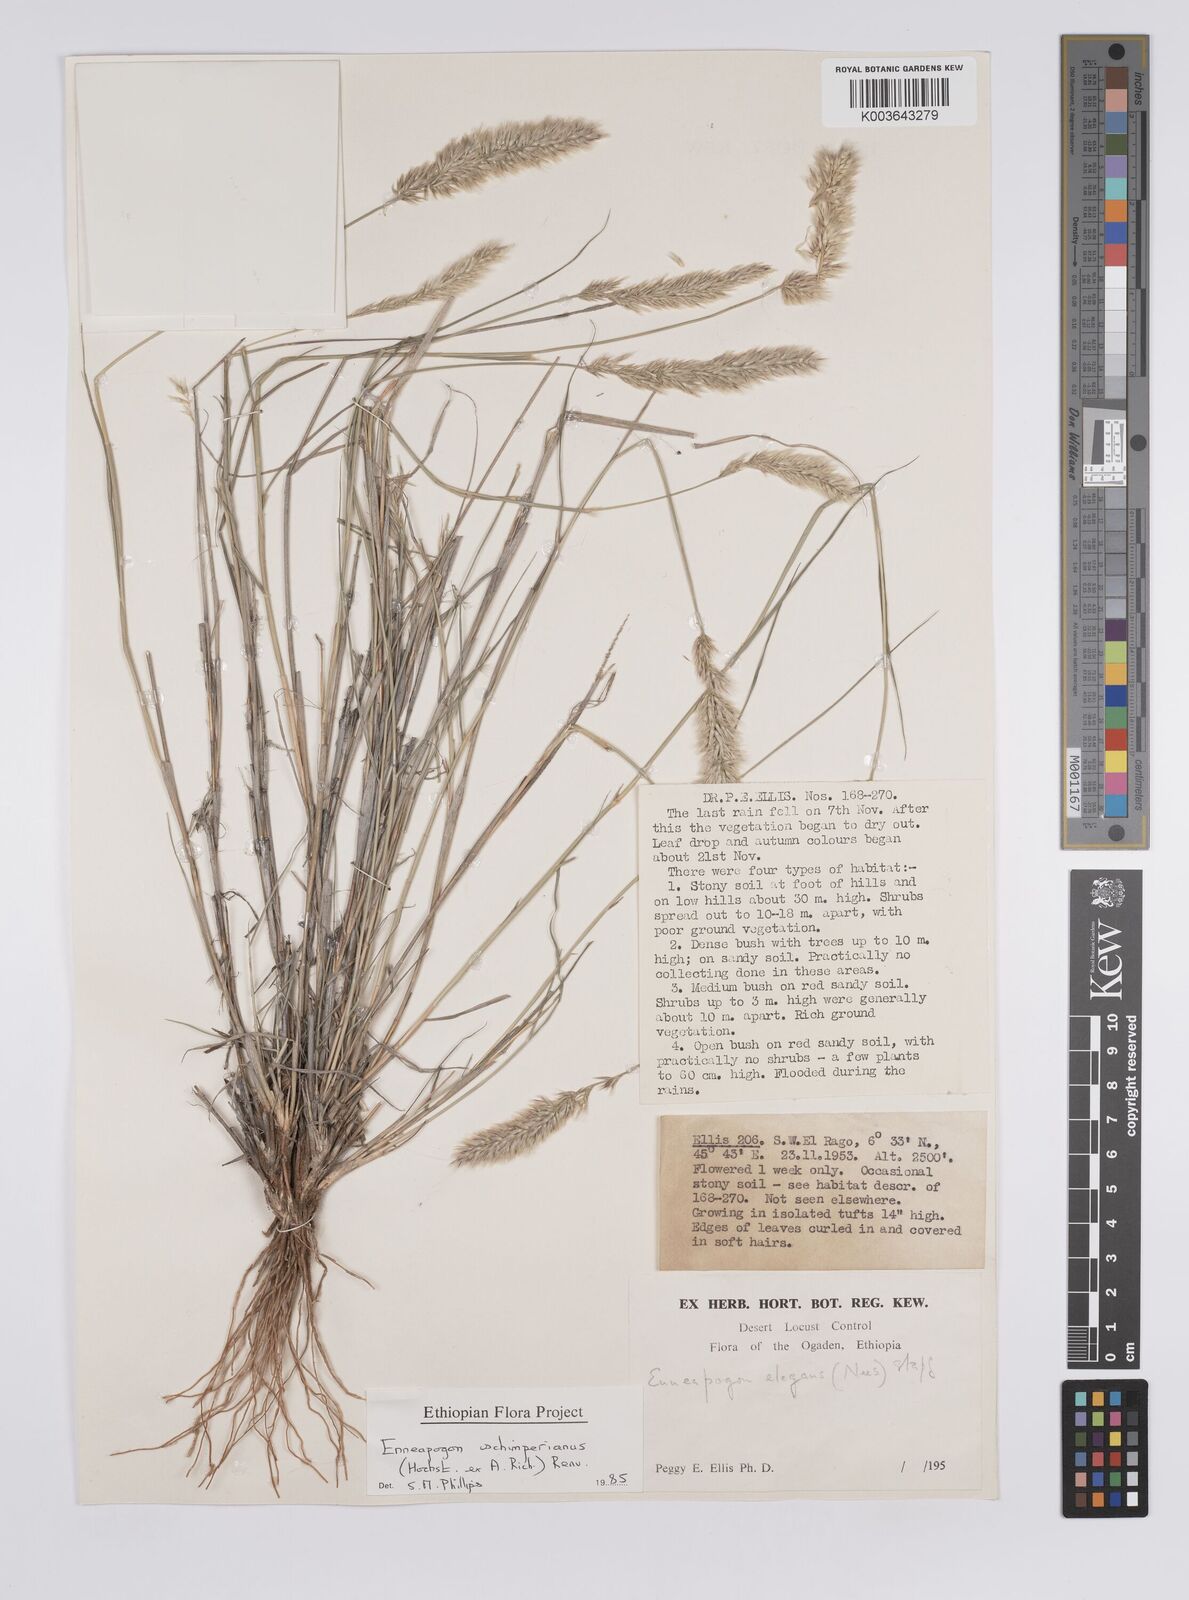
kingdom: Plantae
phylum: Tracheophyta
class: Liliopsida
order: Poales
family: Poaceae
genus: Enneapogon
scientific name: Enneapogon persicus
